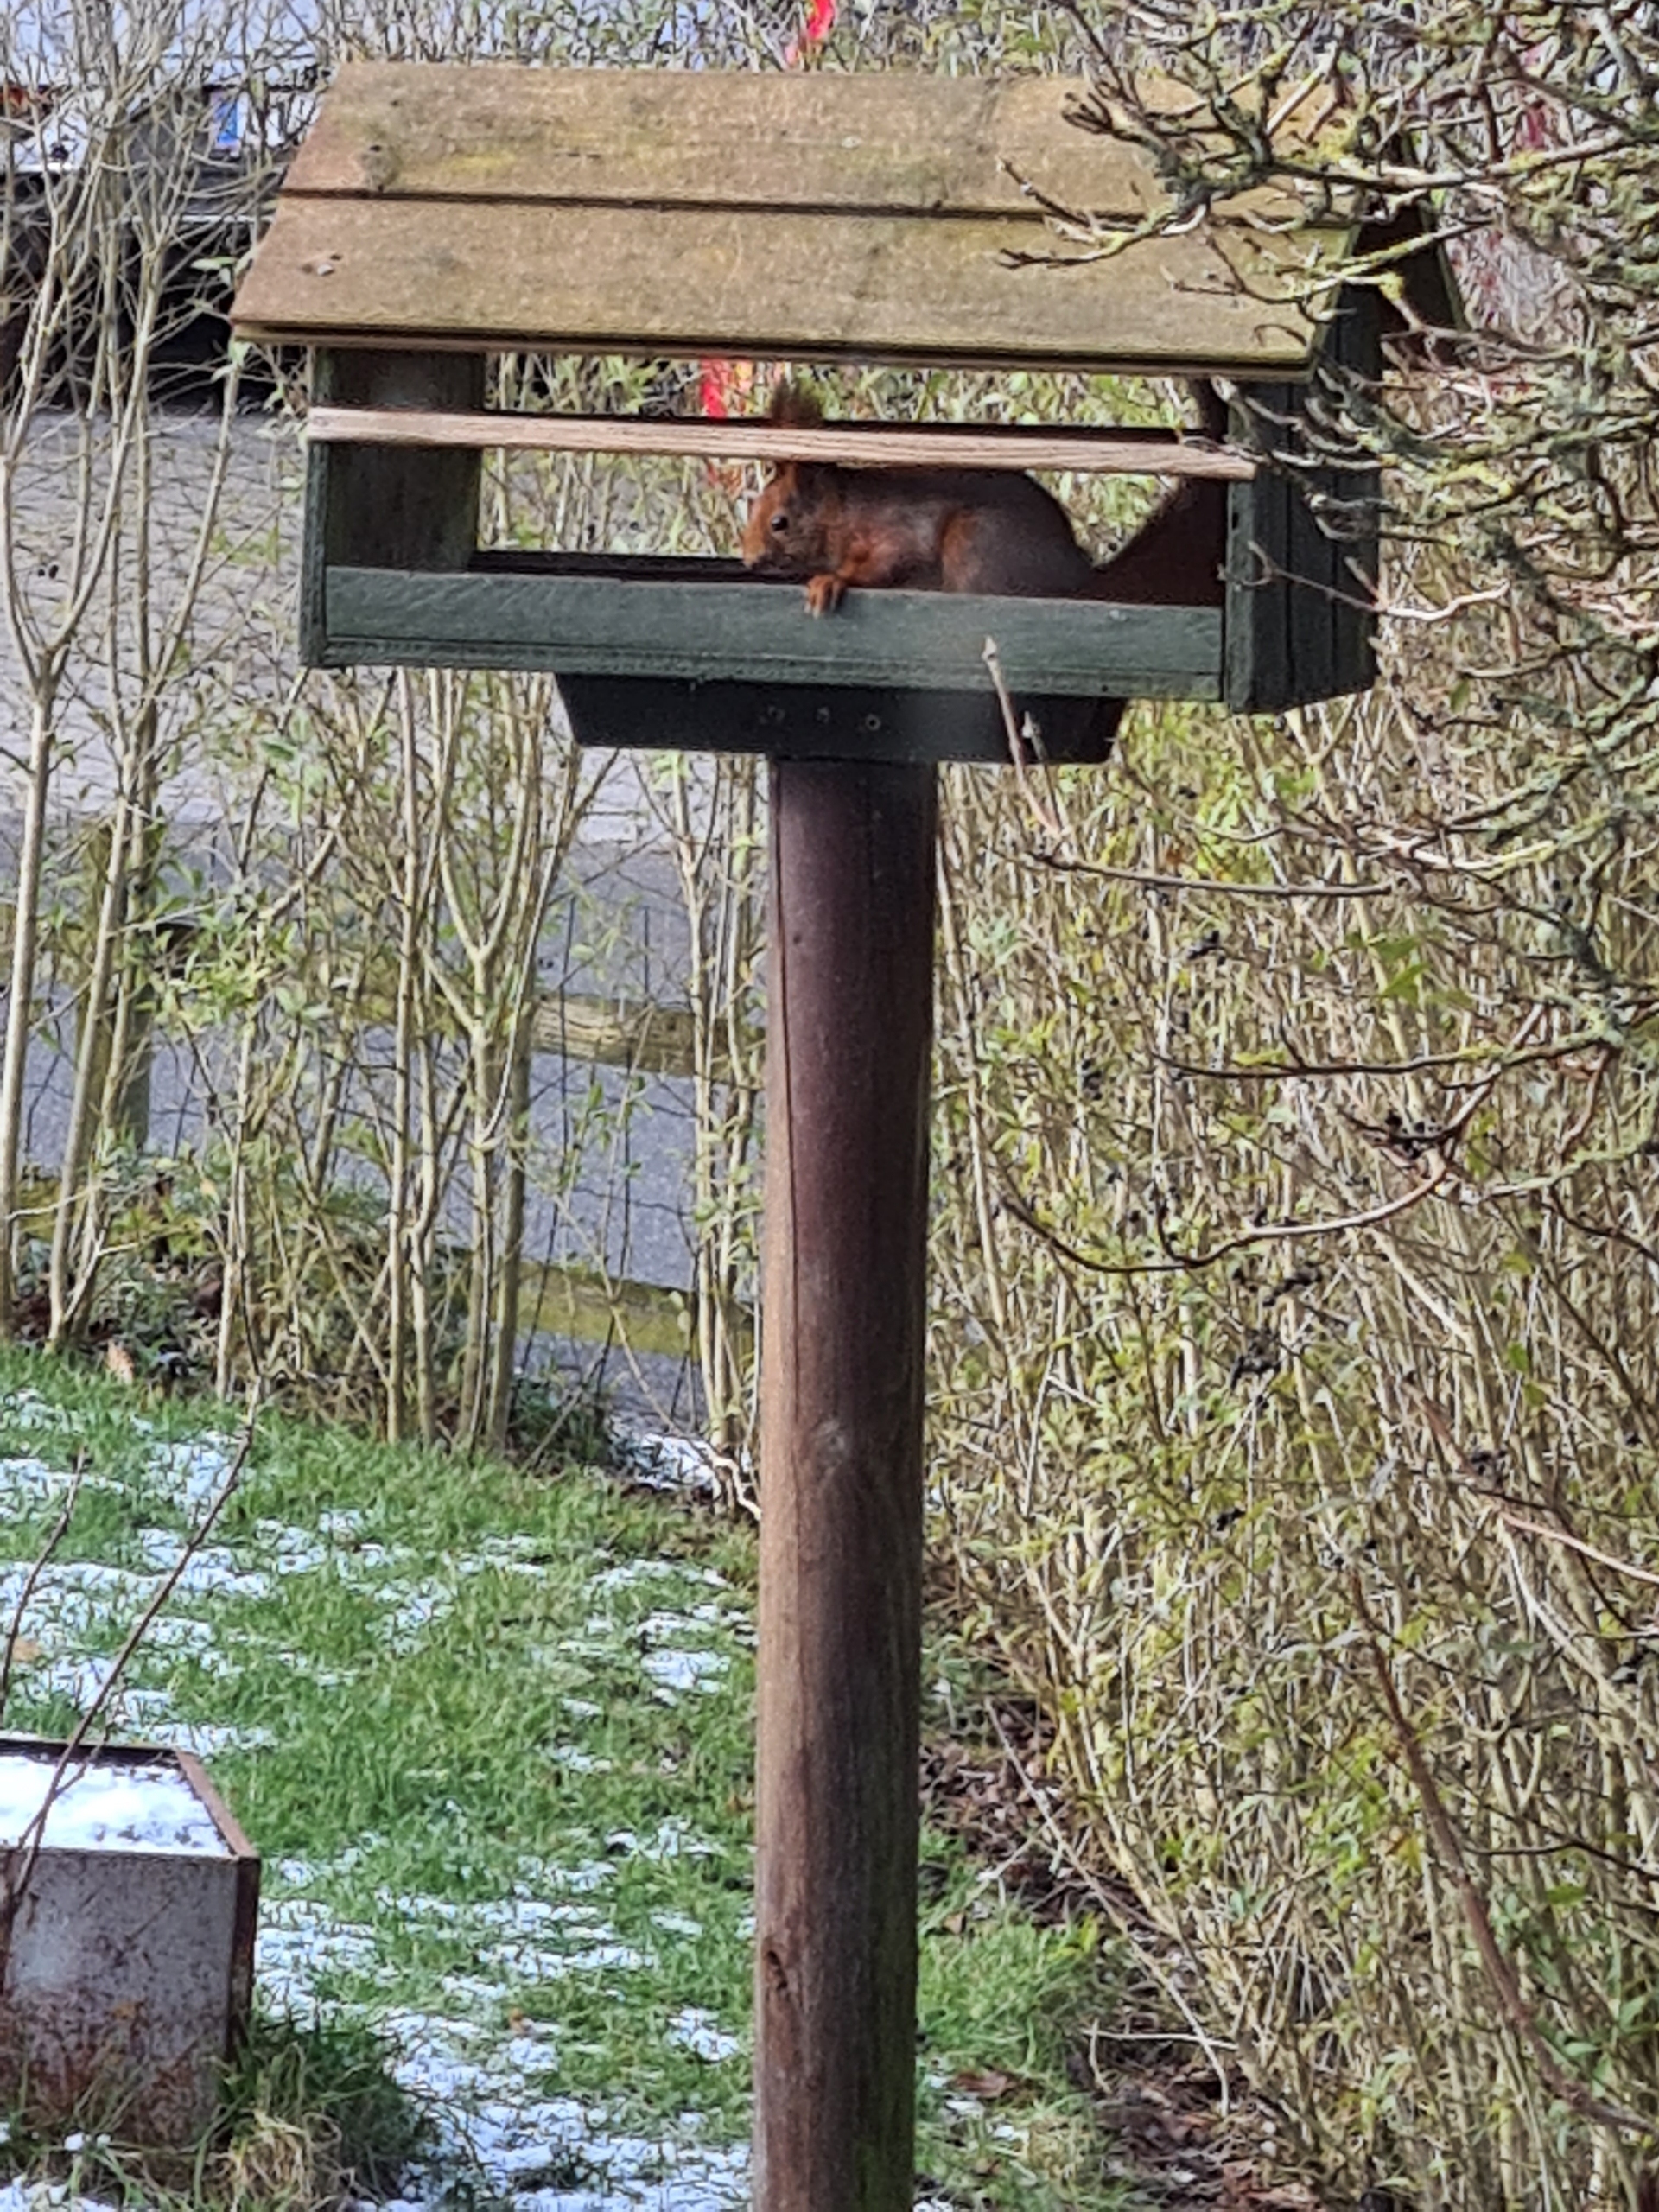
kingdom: Animalia
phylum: Chordata
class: Mammalia
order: Rodentia
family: Sciuridae
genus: Sciurus
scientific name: Sciurus vulgaris
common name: Egern
